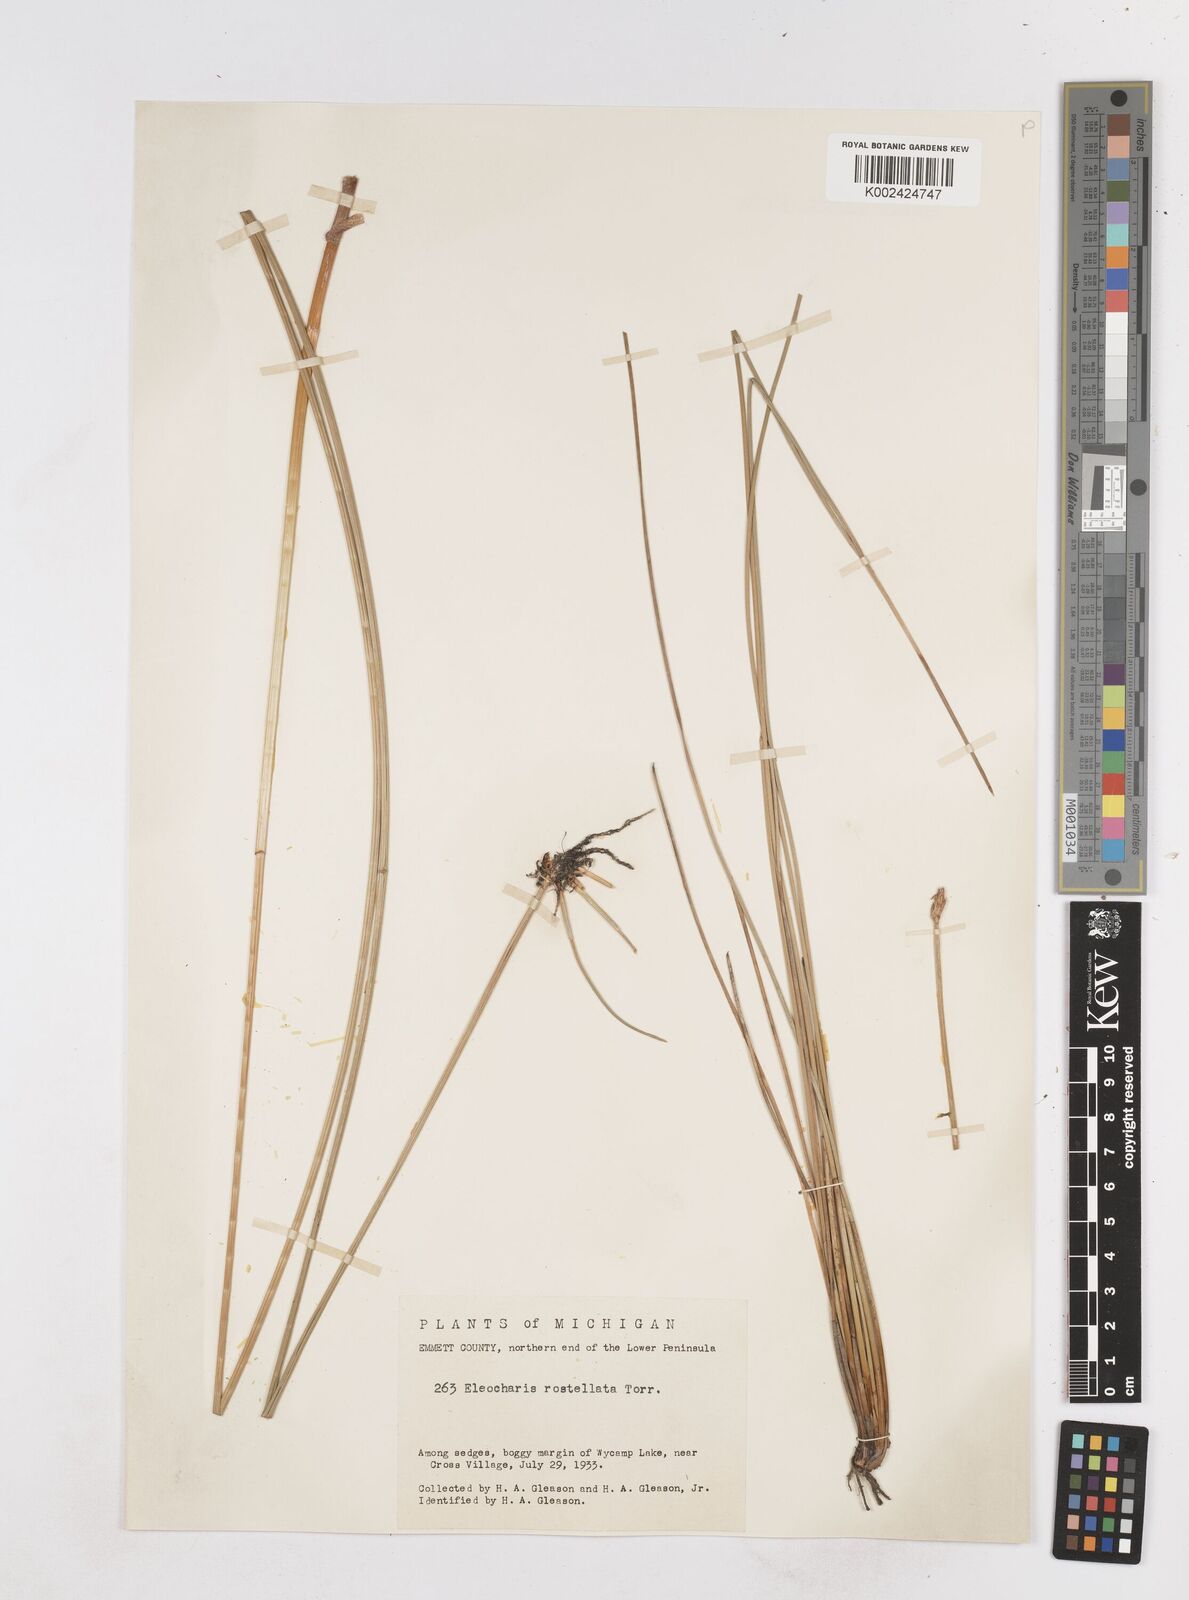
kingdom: Plantae
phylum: Tracheophyta
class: Liliopsida
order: Poales
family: Cyperaceae
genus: Eleocharis
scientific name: Eleocharis rostellata
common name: Walking sedge
